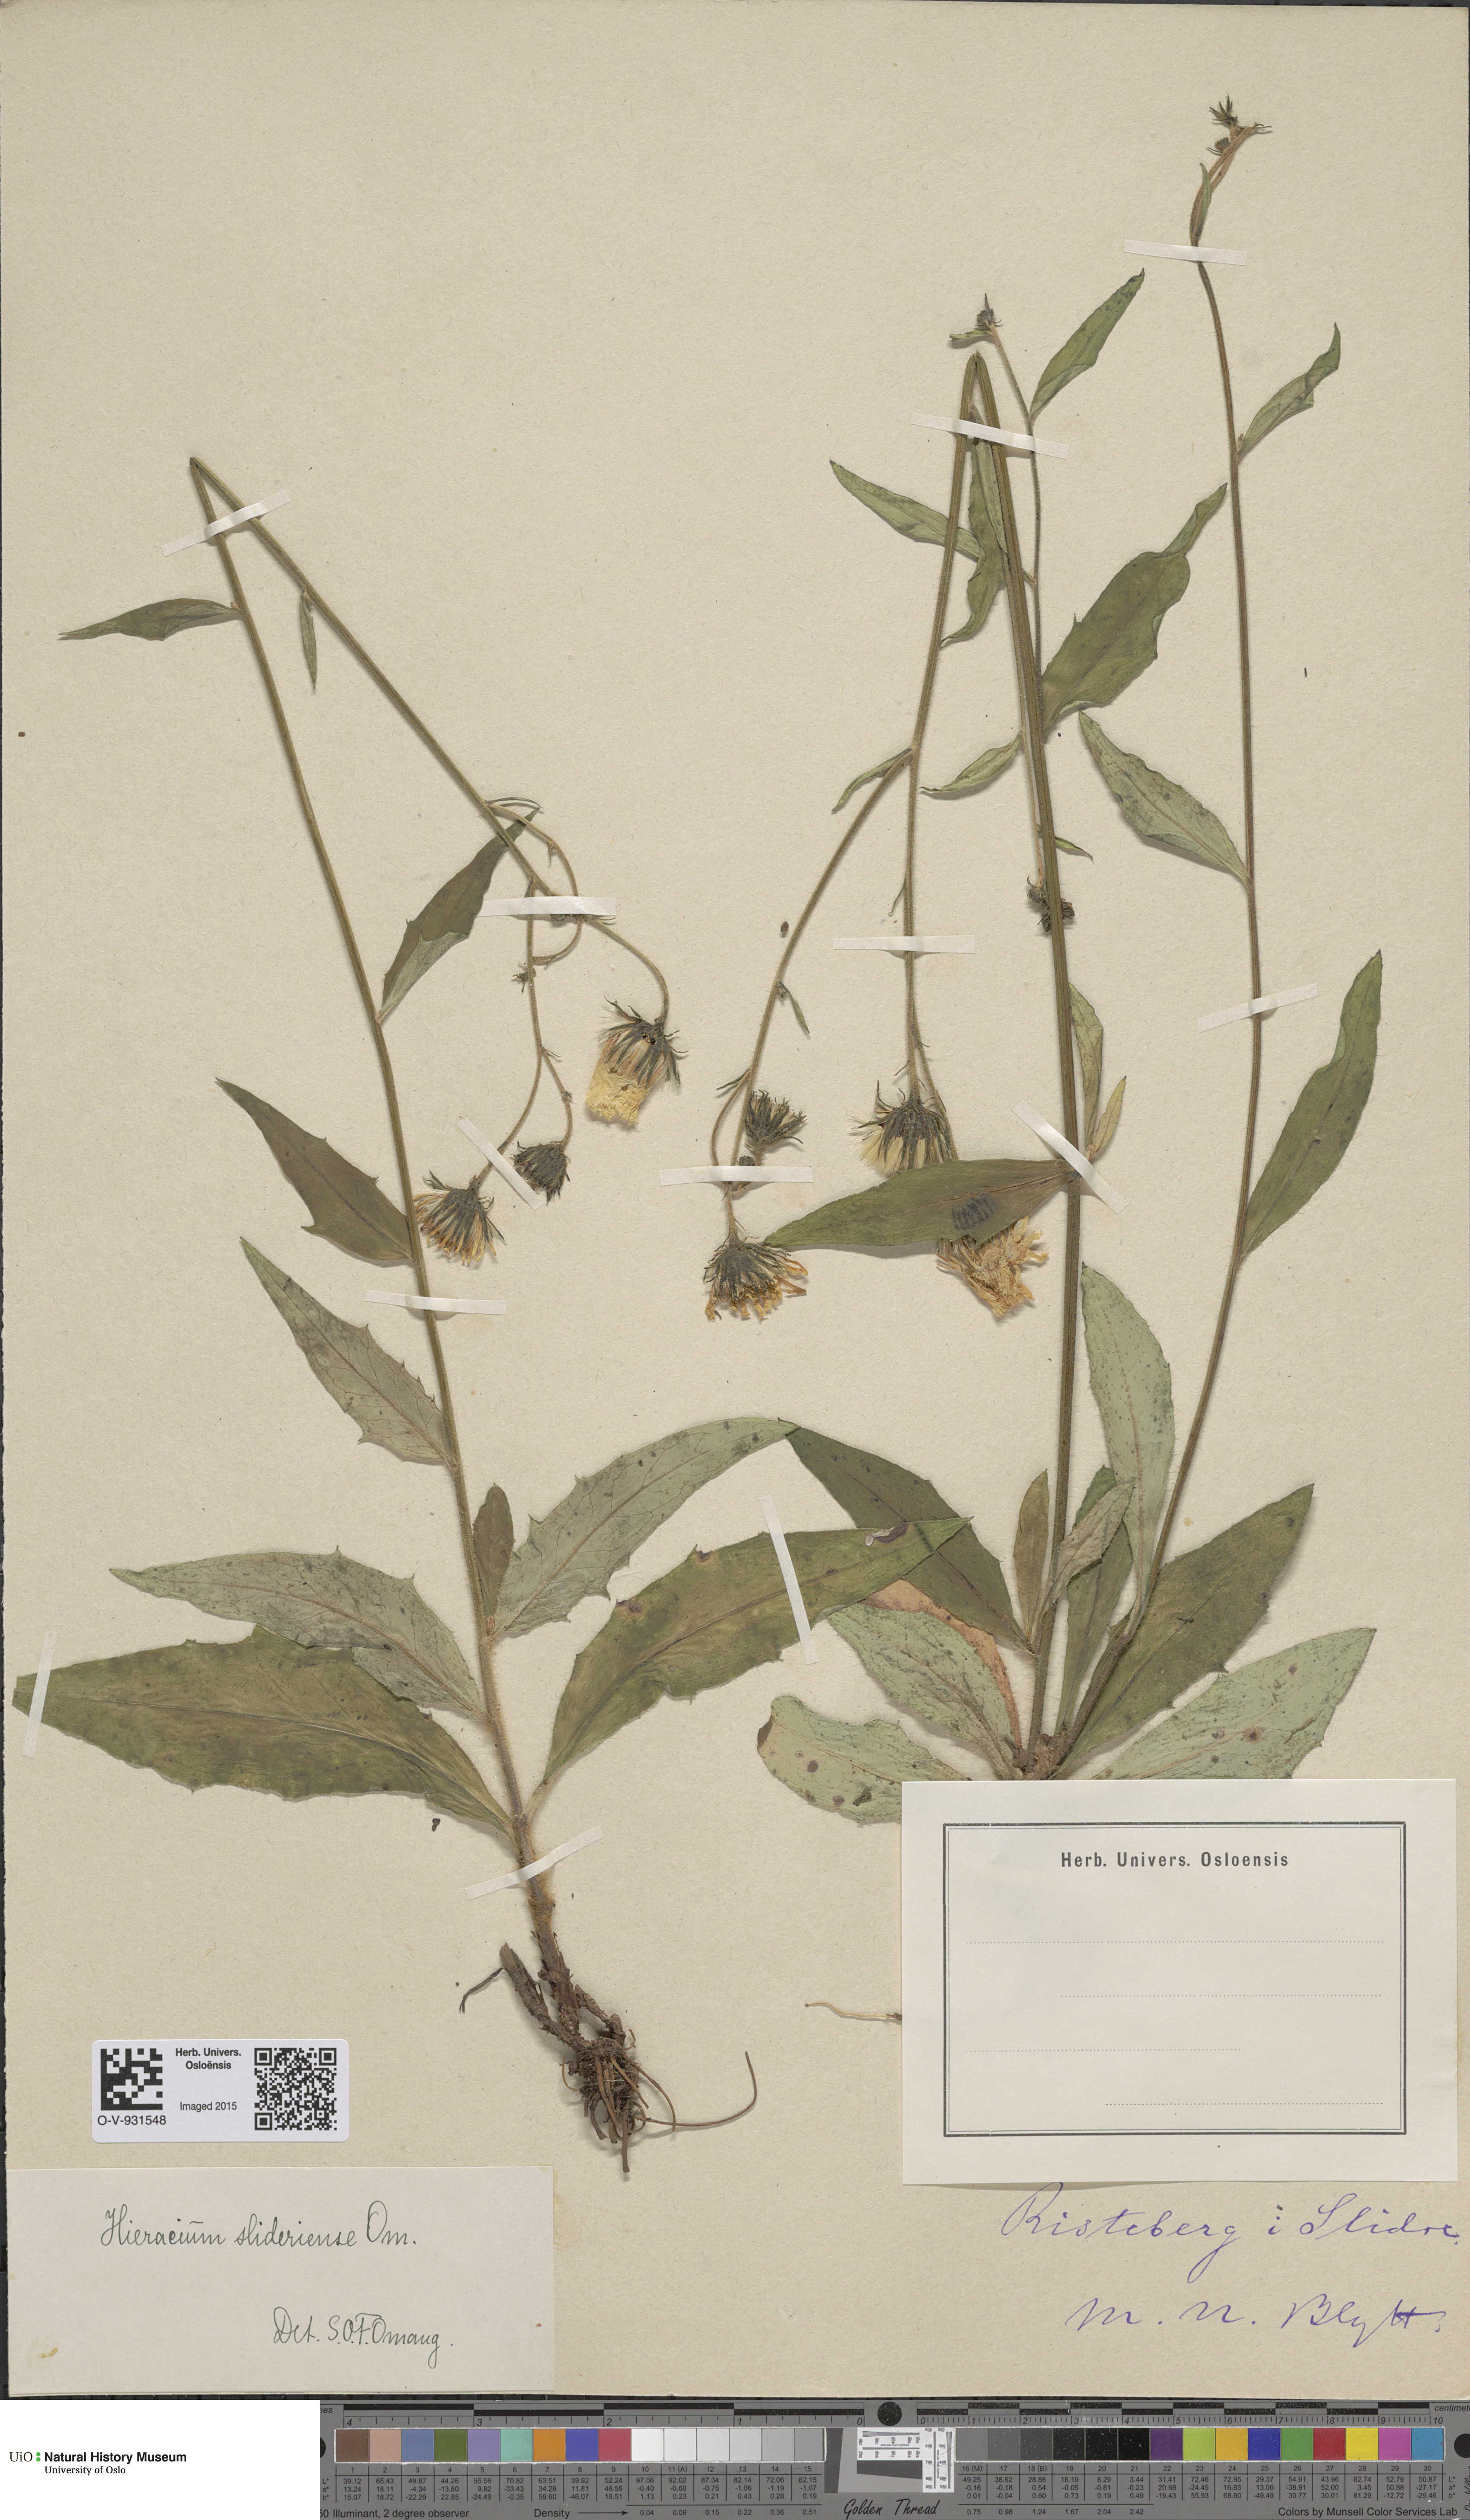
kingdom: Plantae
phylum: Tracheophyta
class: Magnoliopsida
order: Asterales
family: Asteraceae
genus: Hieracium
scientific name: Hieracium
